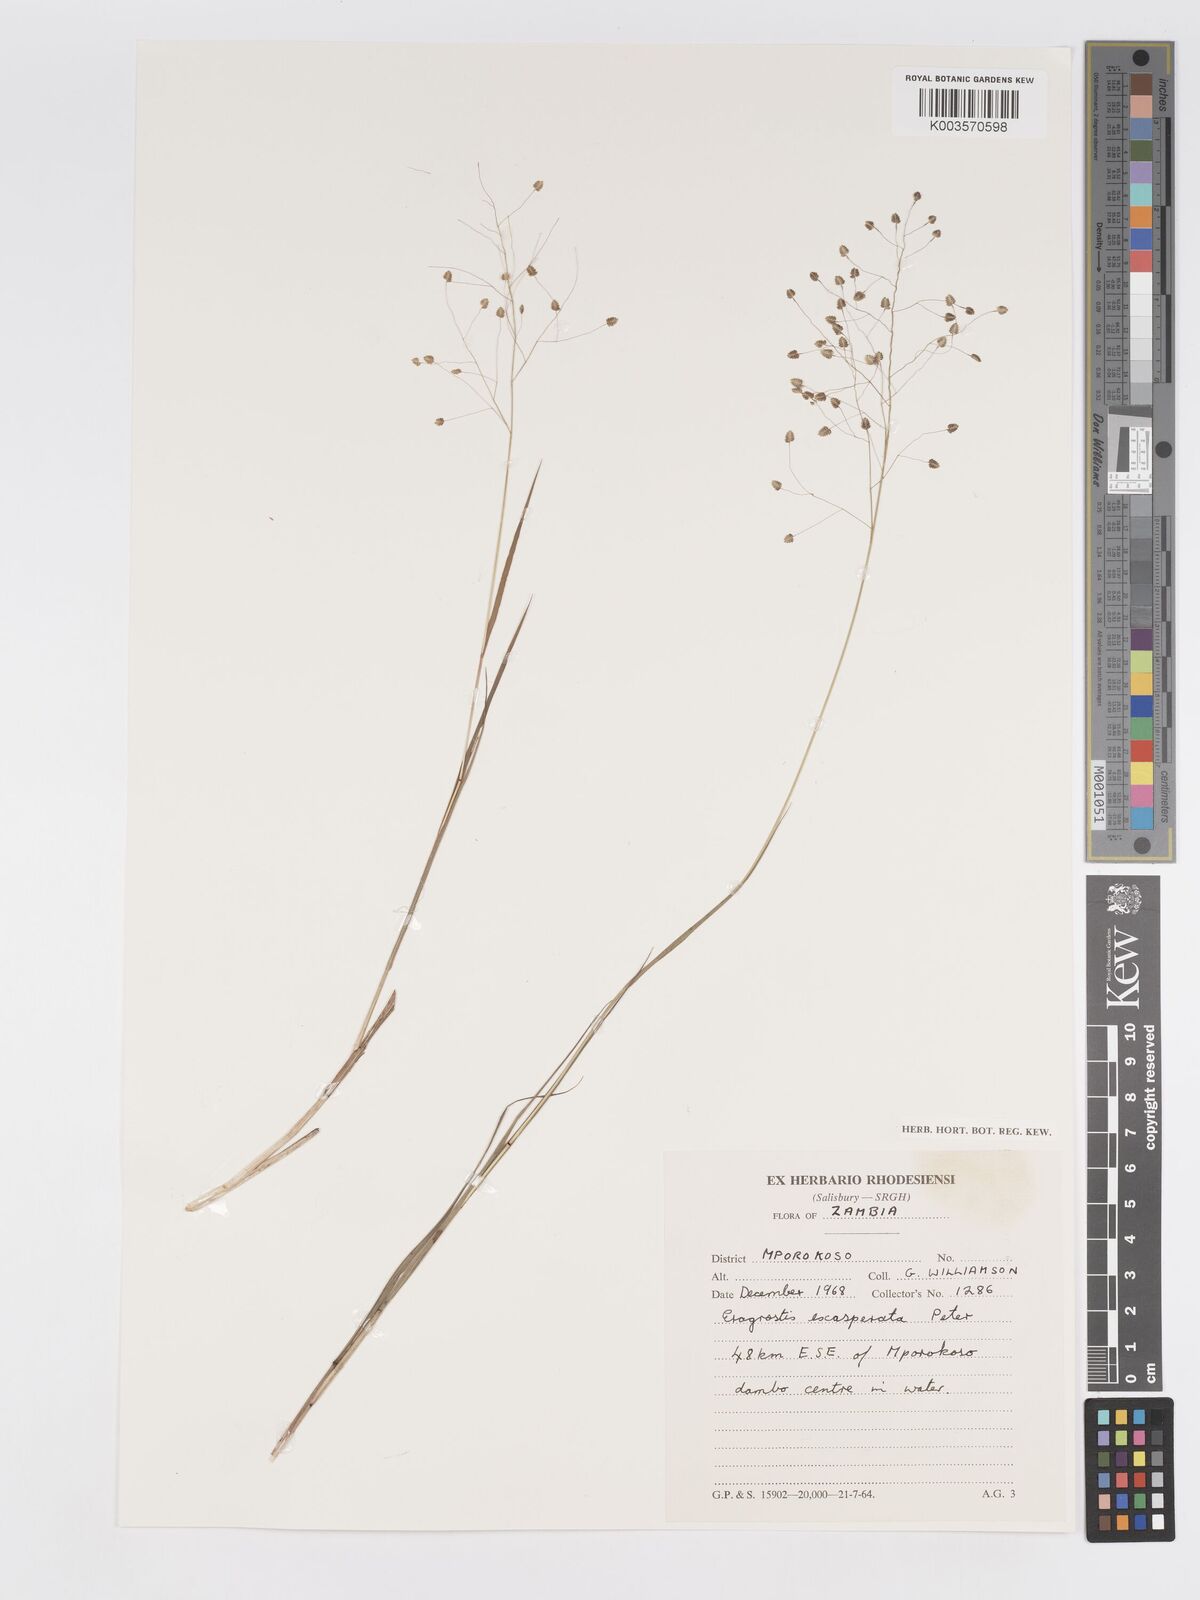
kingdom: Plantae
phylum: Tracheophyta
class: Liliopsida
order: Poales
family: Poaceae
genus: Eragrostis
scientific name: Eragrostis exasperata
